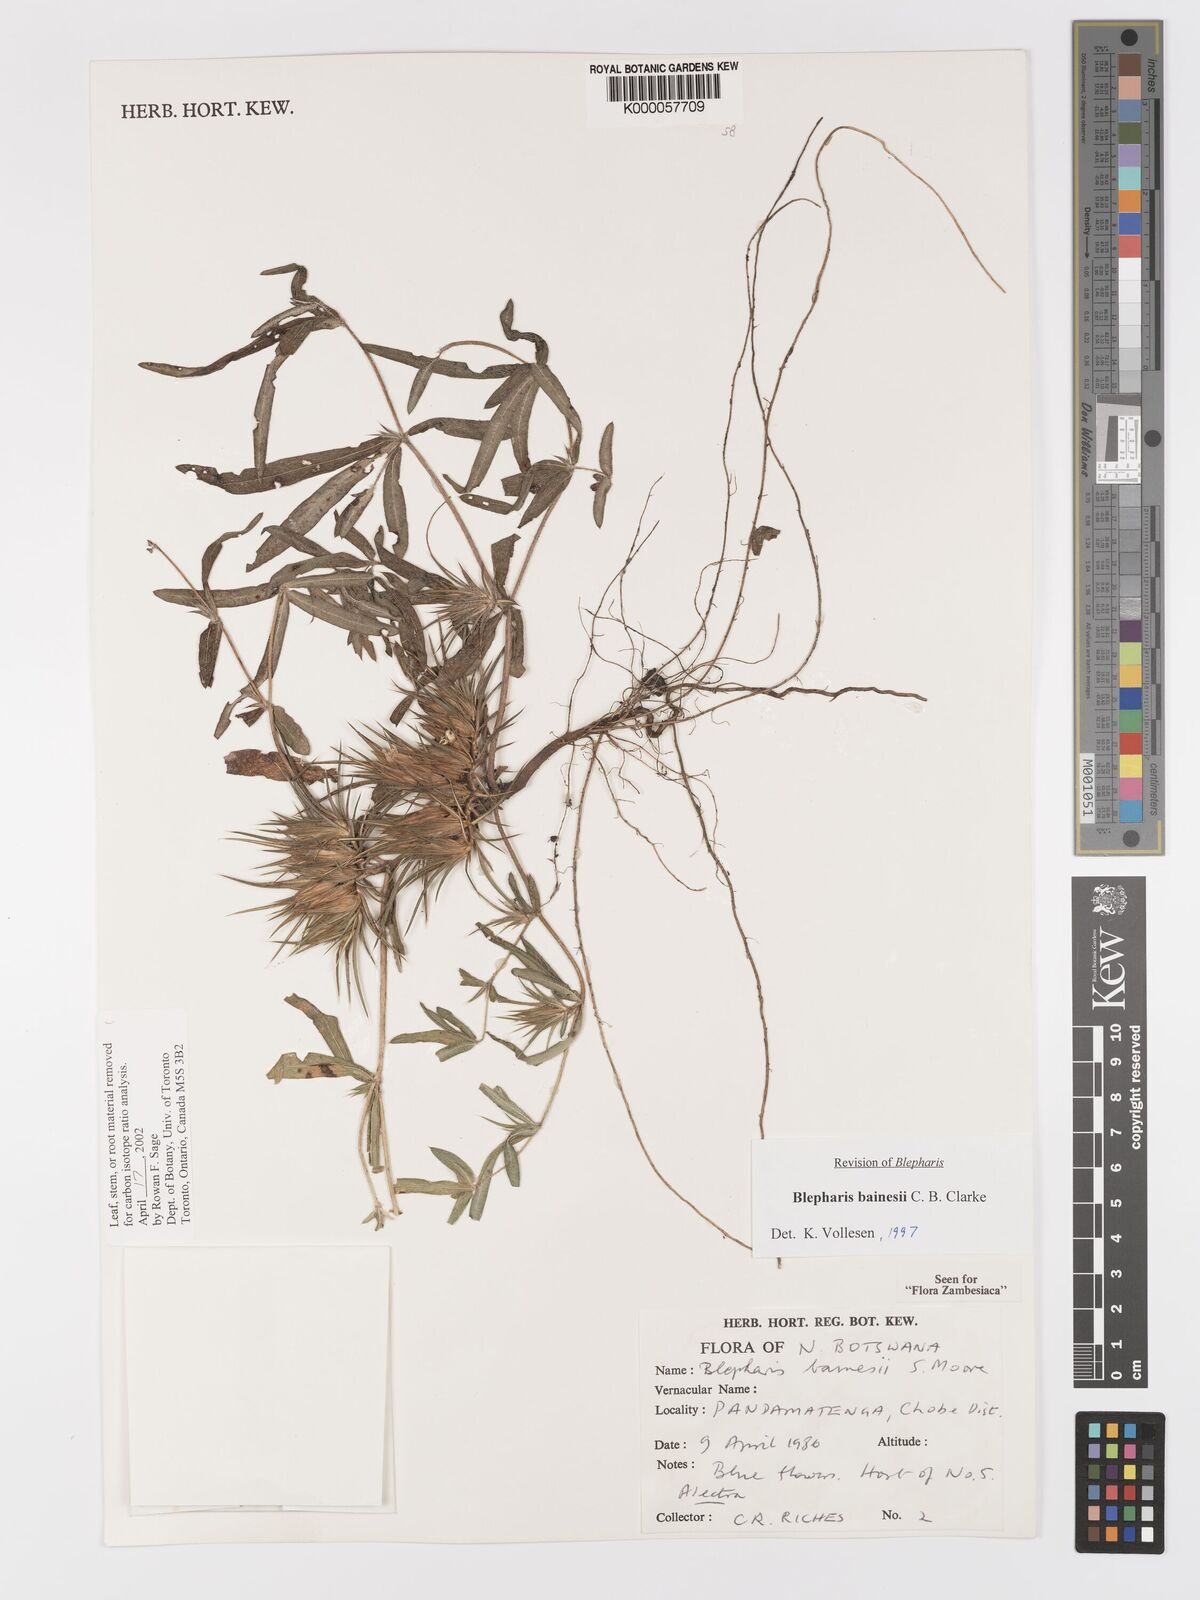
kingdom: Plantae
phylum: Tracheophyta
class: Magnoliopsida
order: Lamiales
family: Acanthaceae
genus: Blepharis
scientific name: Blepharis bainesii
